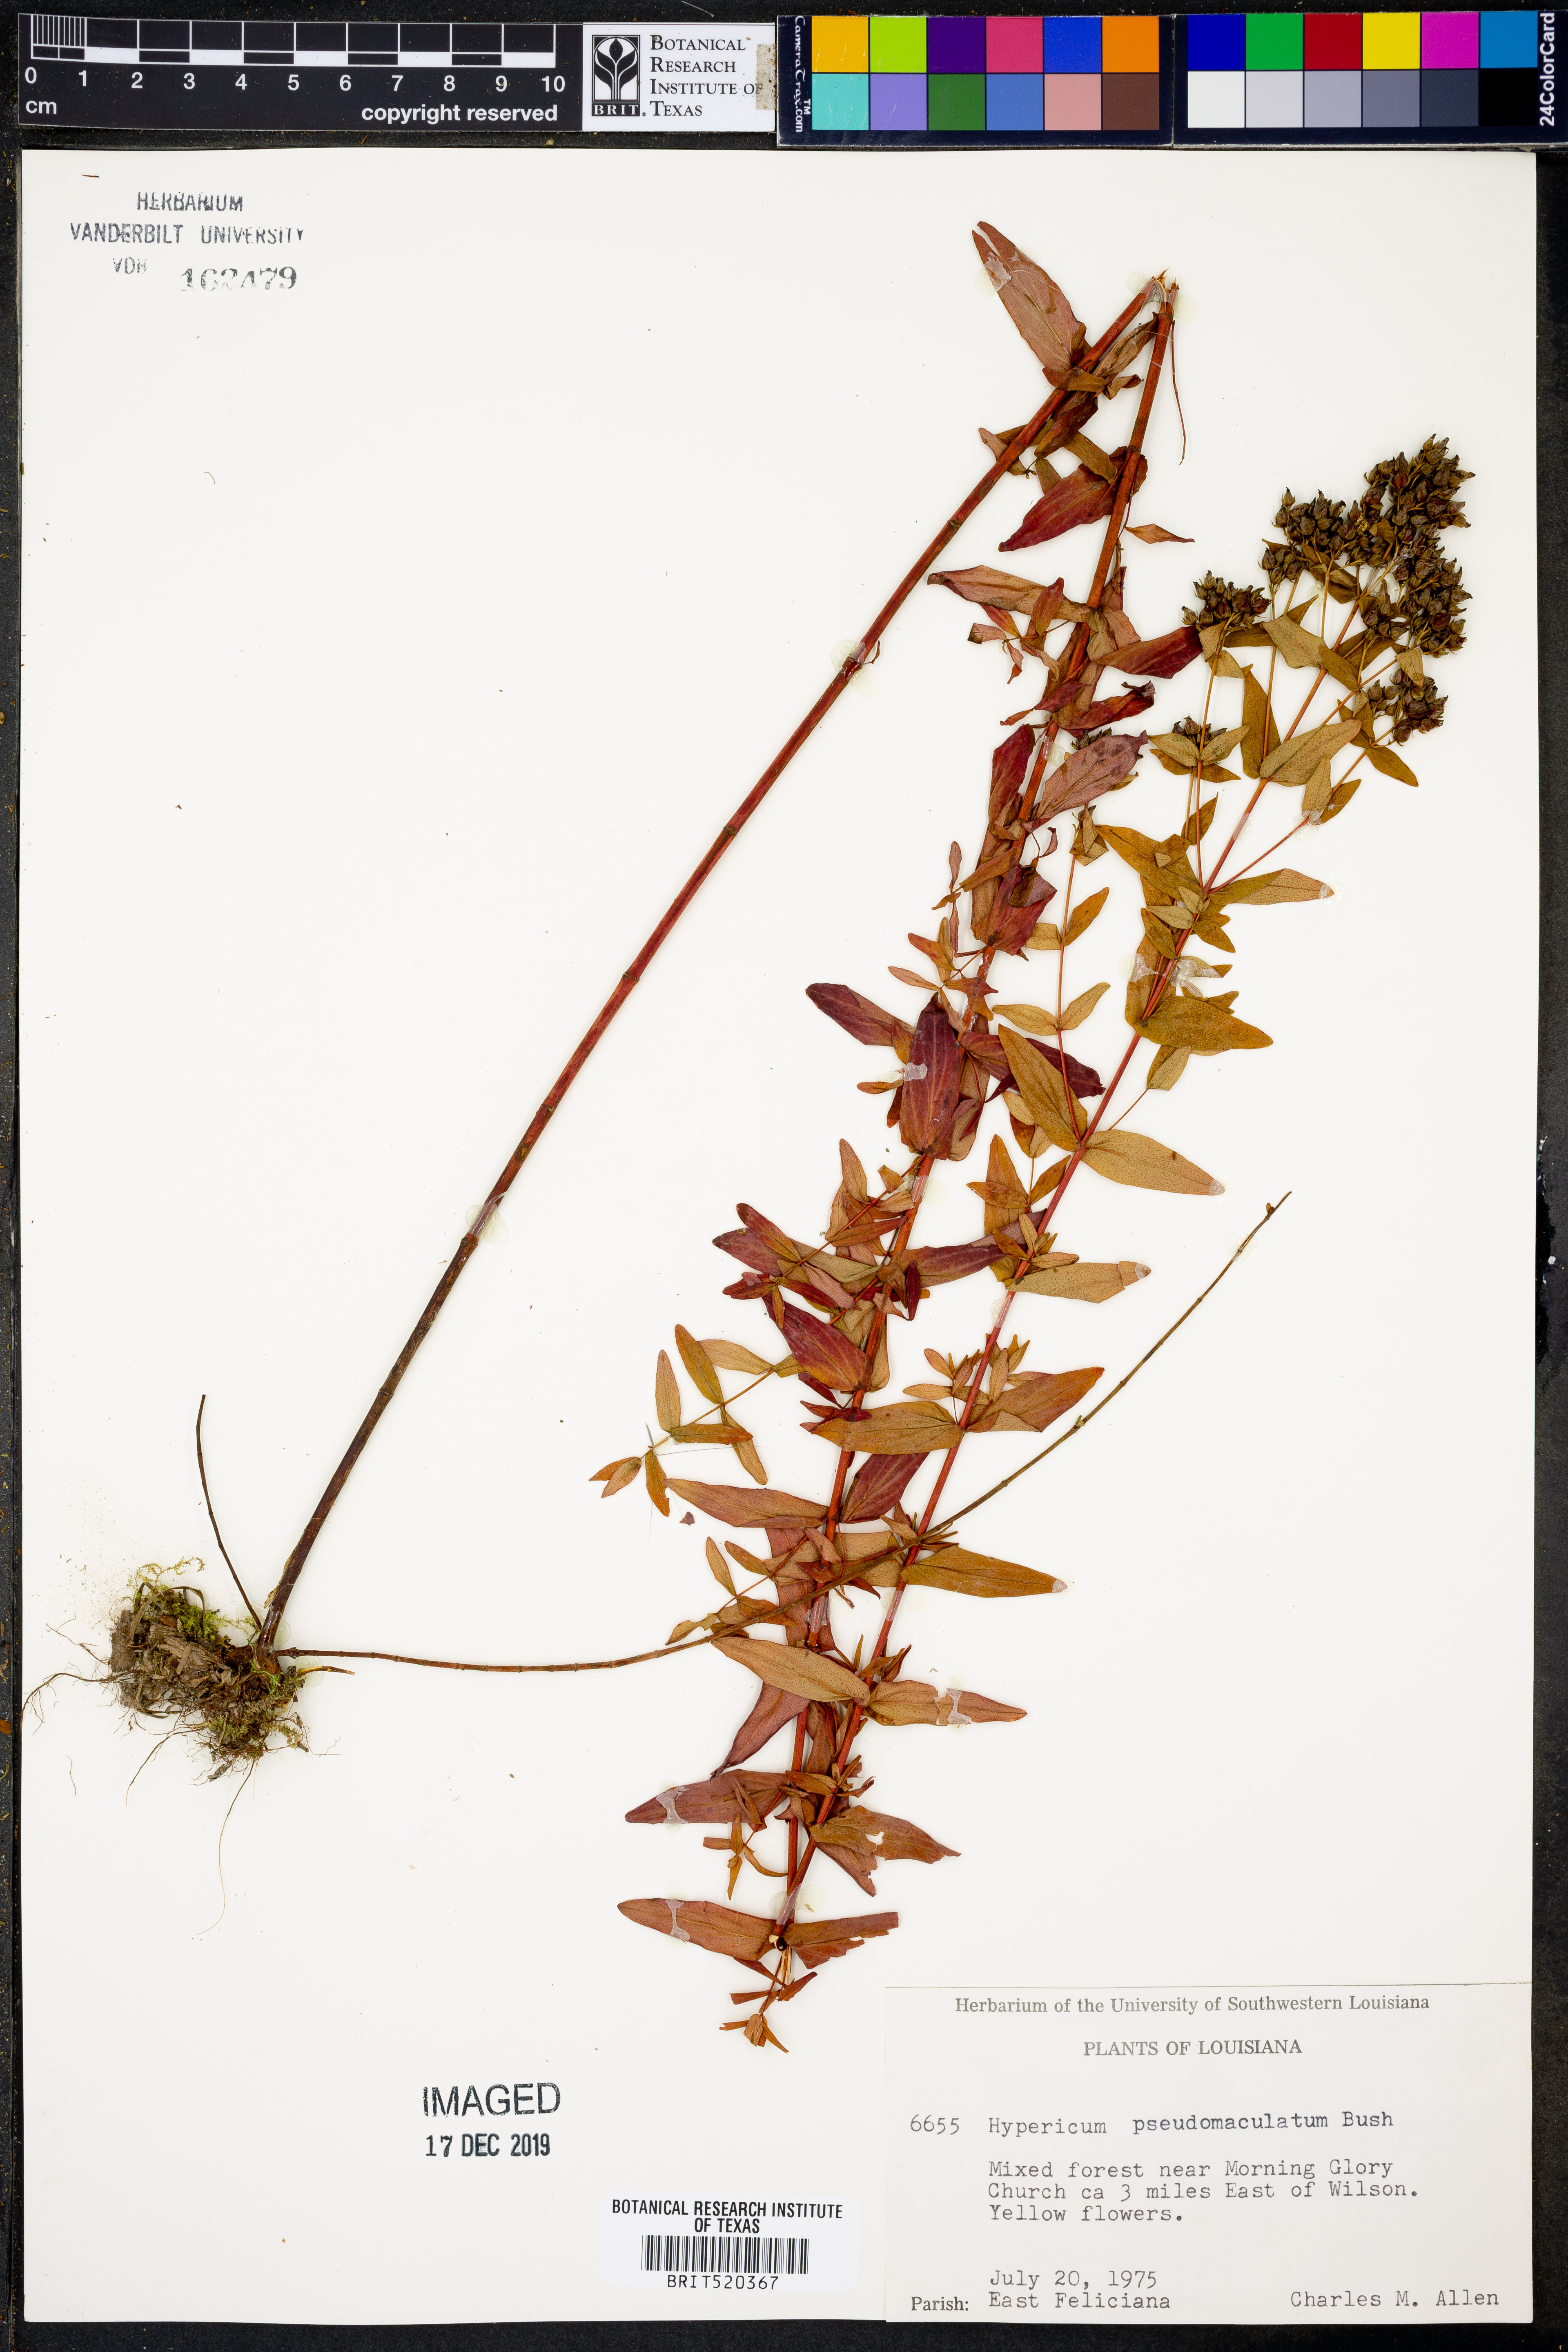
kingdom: Plantae
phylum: Tracheophyta
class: Magnoliopsida
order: Malpighiales
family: Hypericaceae
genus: Hypericum
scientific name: Hypericum pseudomaculatum
